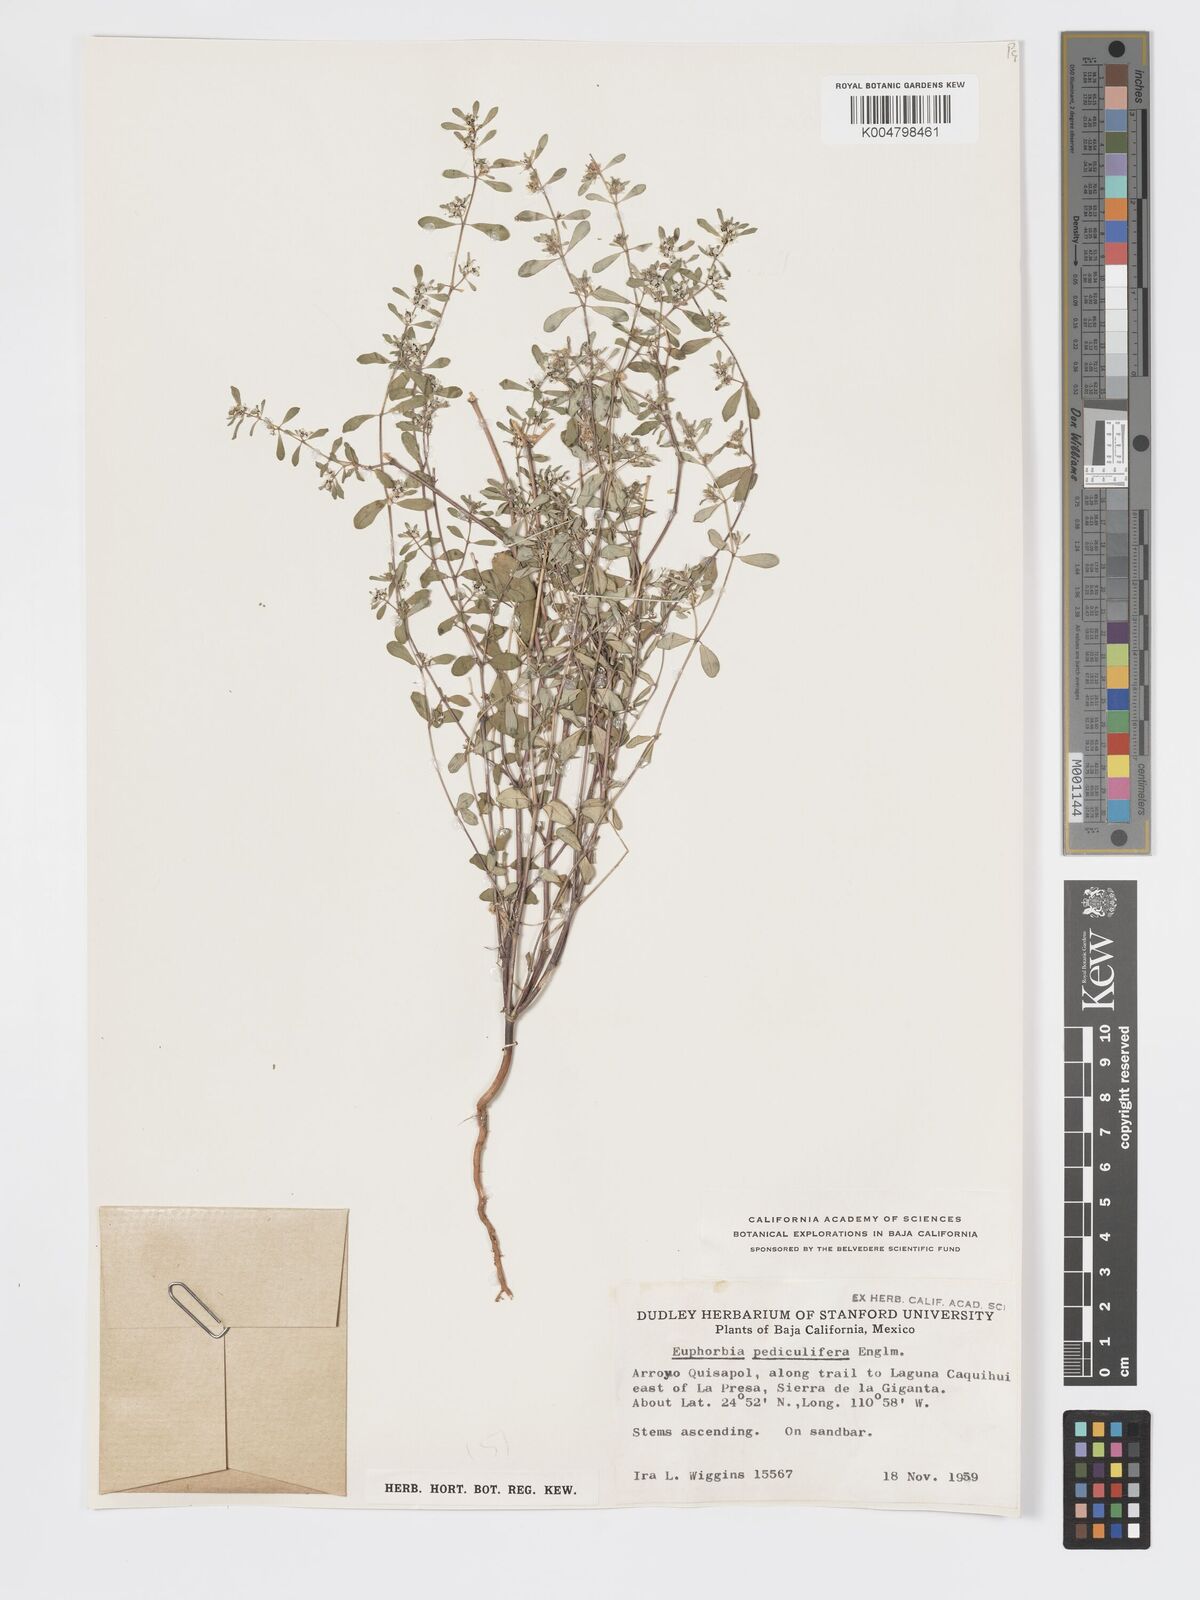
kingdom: Plantae
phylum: Tracheophyta
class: Magnoliopsida
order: Malpighiales
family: Euphorbiaceae
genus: Euphorbia
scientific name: Euphorbia pediculifera
